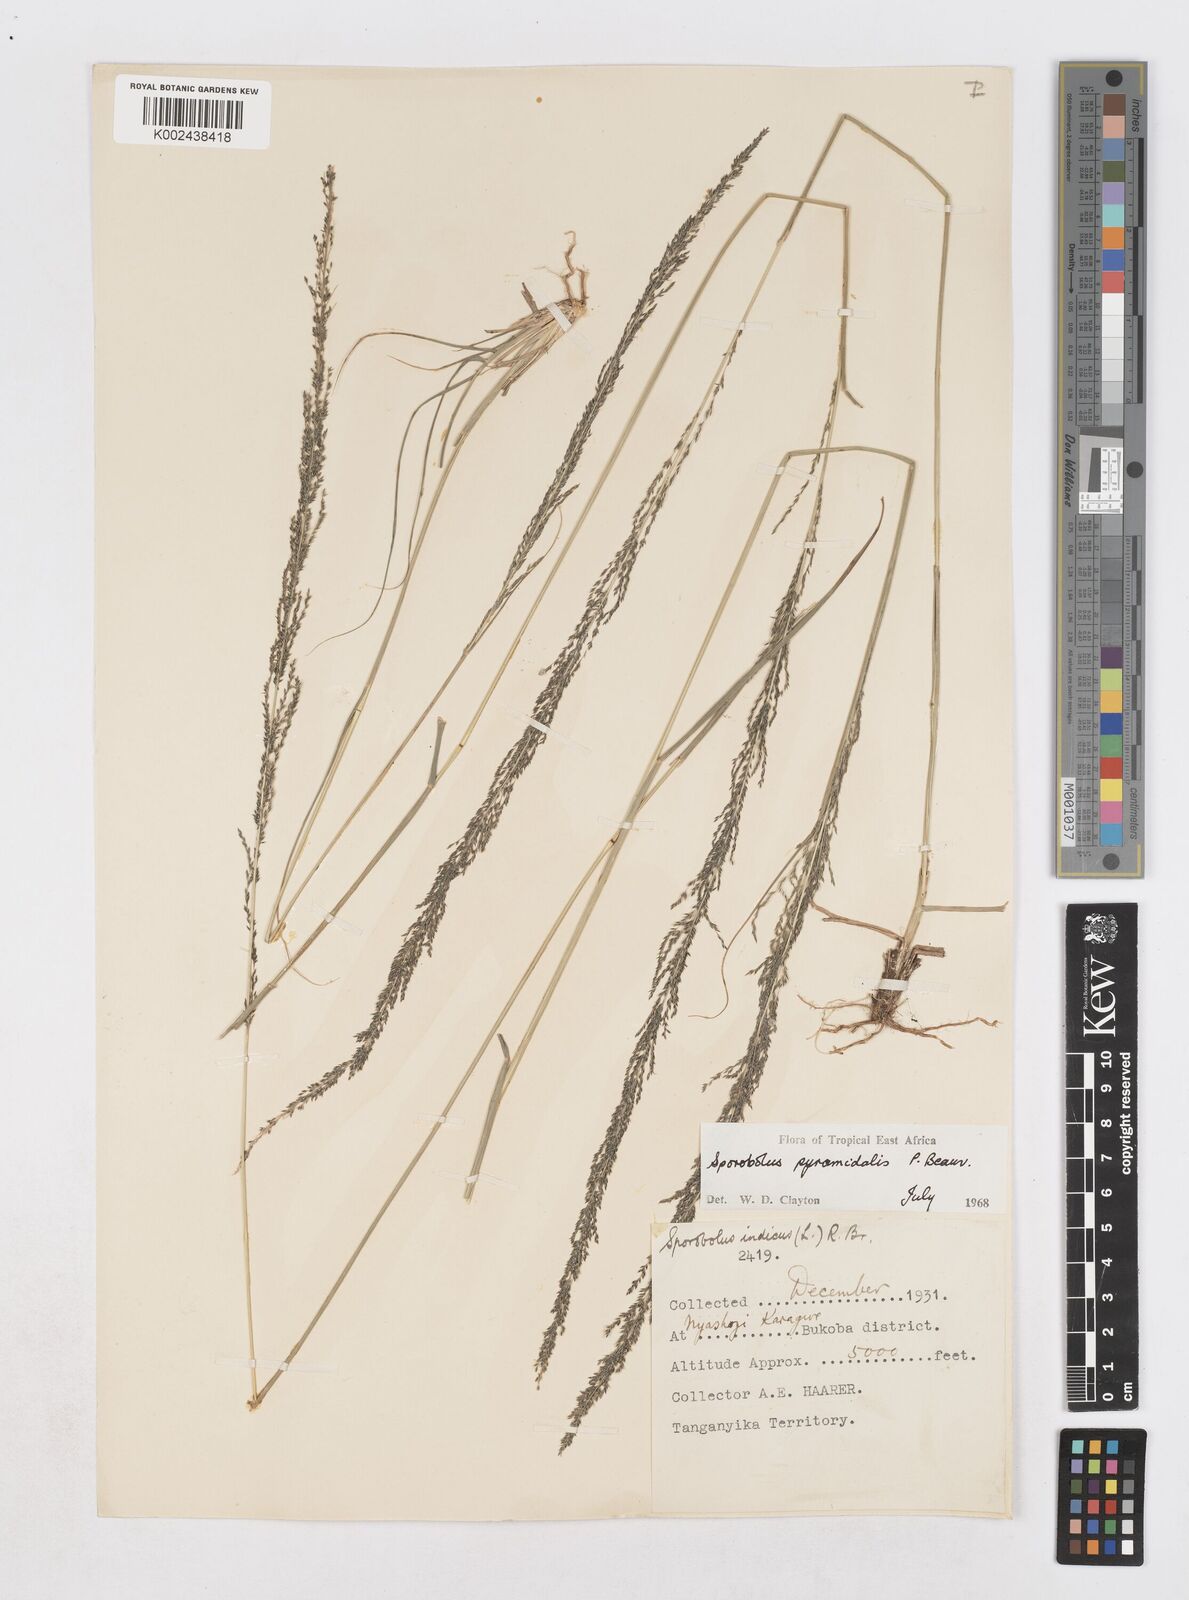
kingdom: Plantae
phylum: Tracheophyta
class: Liliopsida
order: Poales
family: Poaceae
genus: Sporobolus
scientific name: Sporobolus pyramidalis
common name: West indian dropseed
